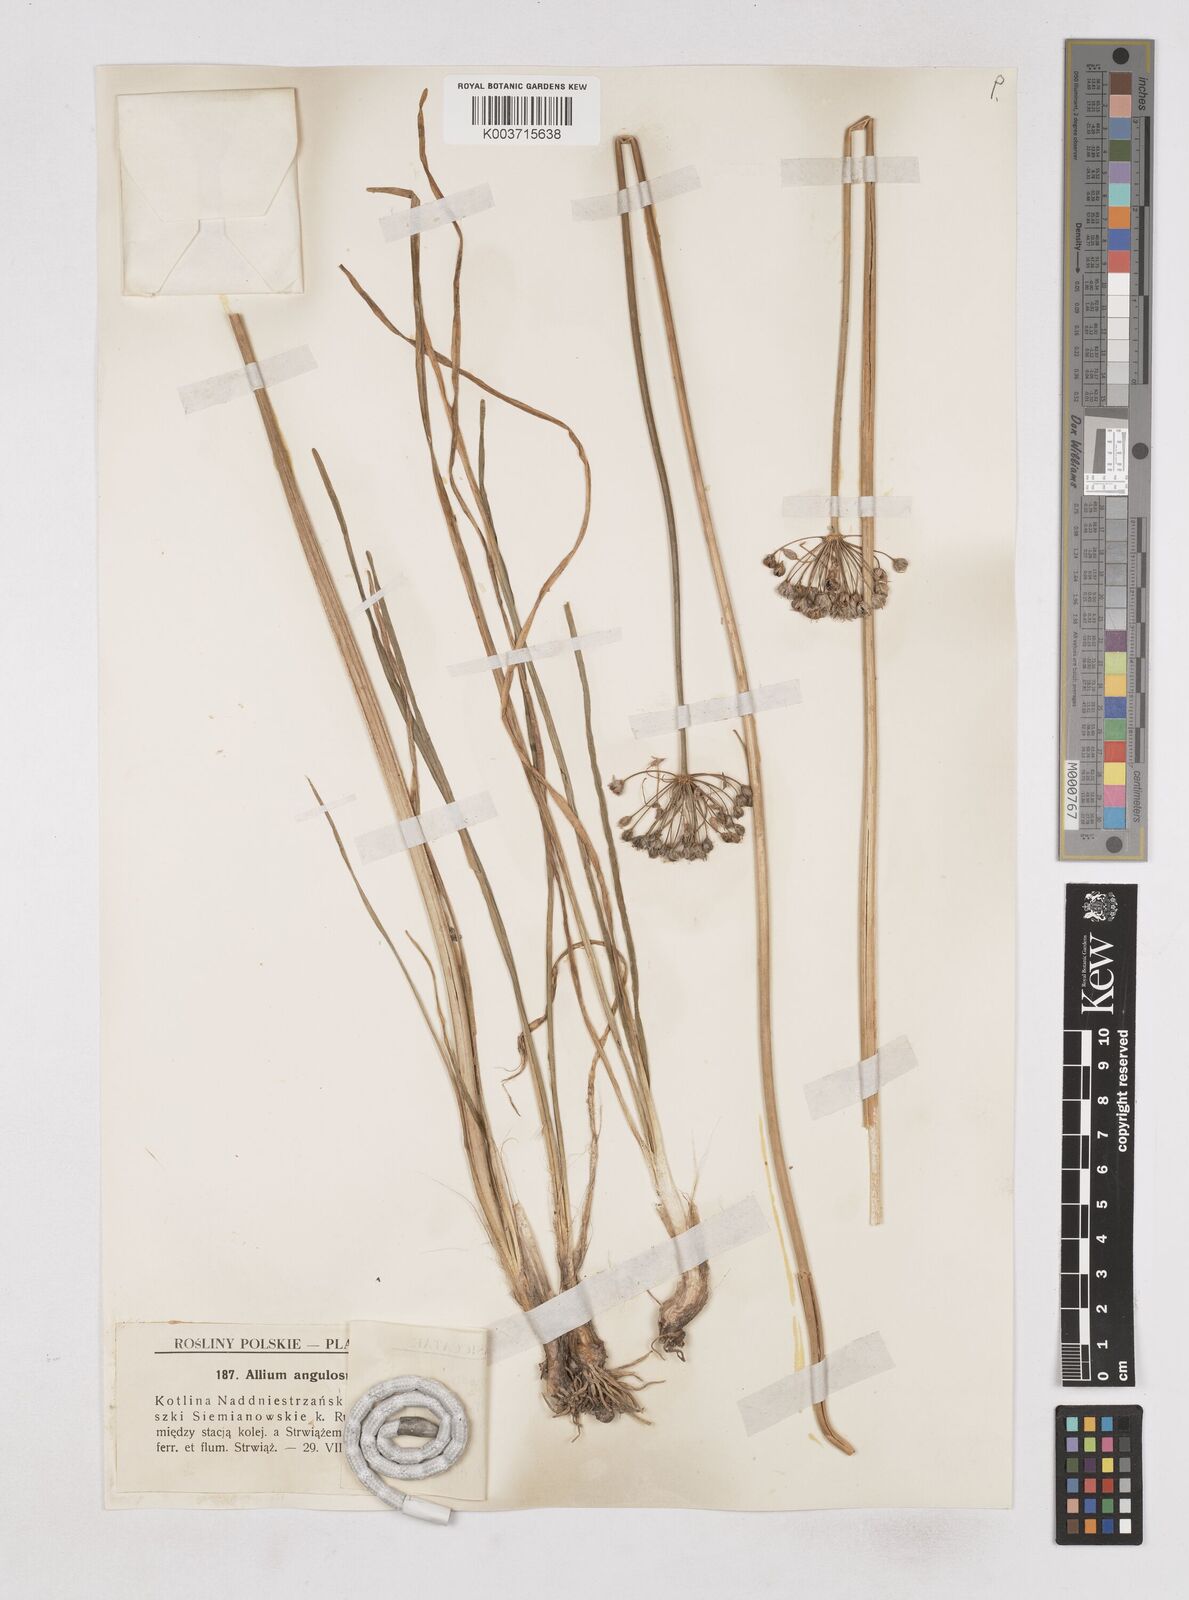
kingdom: Plantae
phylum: Tracheophyta
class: Liliopsida
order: Asparagales
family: Amaryllidaceae
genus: Allium
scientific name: Allium angulosum
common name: Mouse garlic
